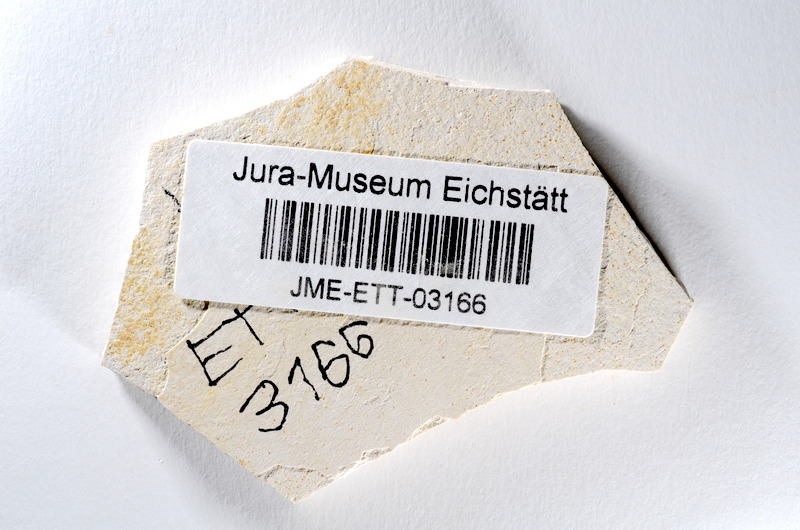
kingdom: Animalia
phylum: Chordata
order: Salmoniformes
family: Orthogonikleithridae
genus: Orthogonikleithrus
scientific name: Orthogonikleithrus hoelli
